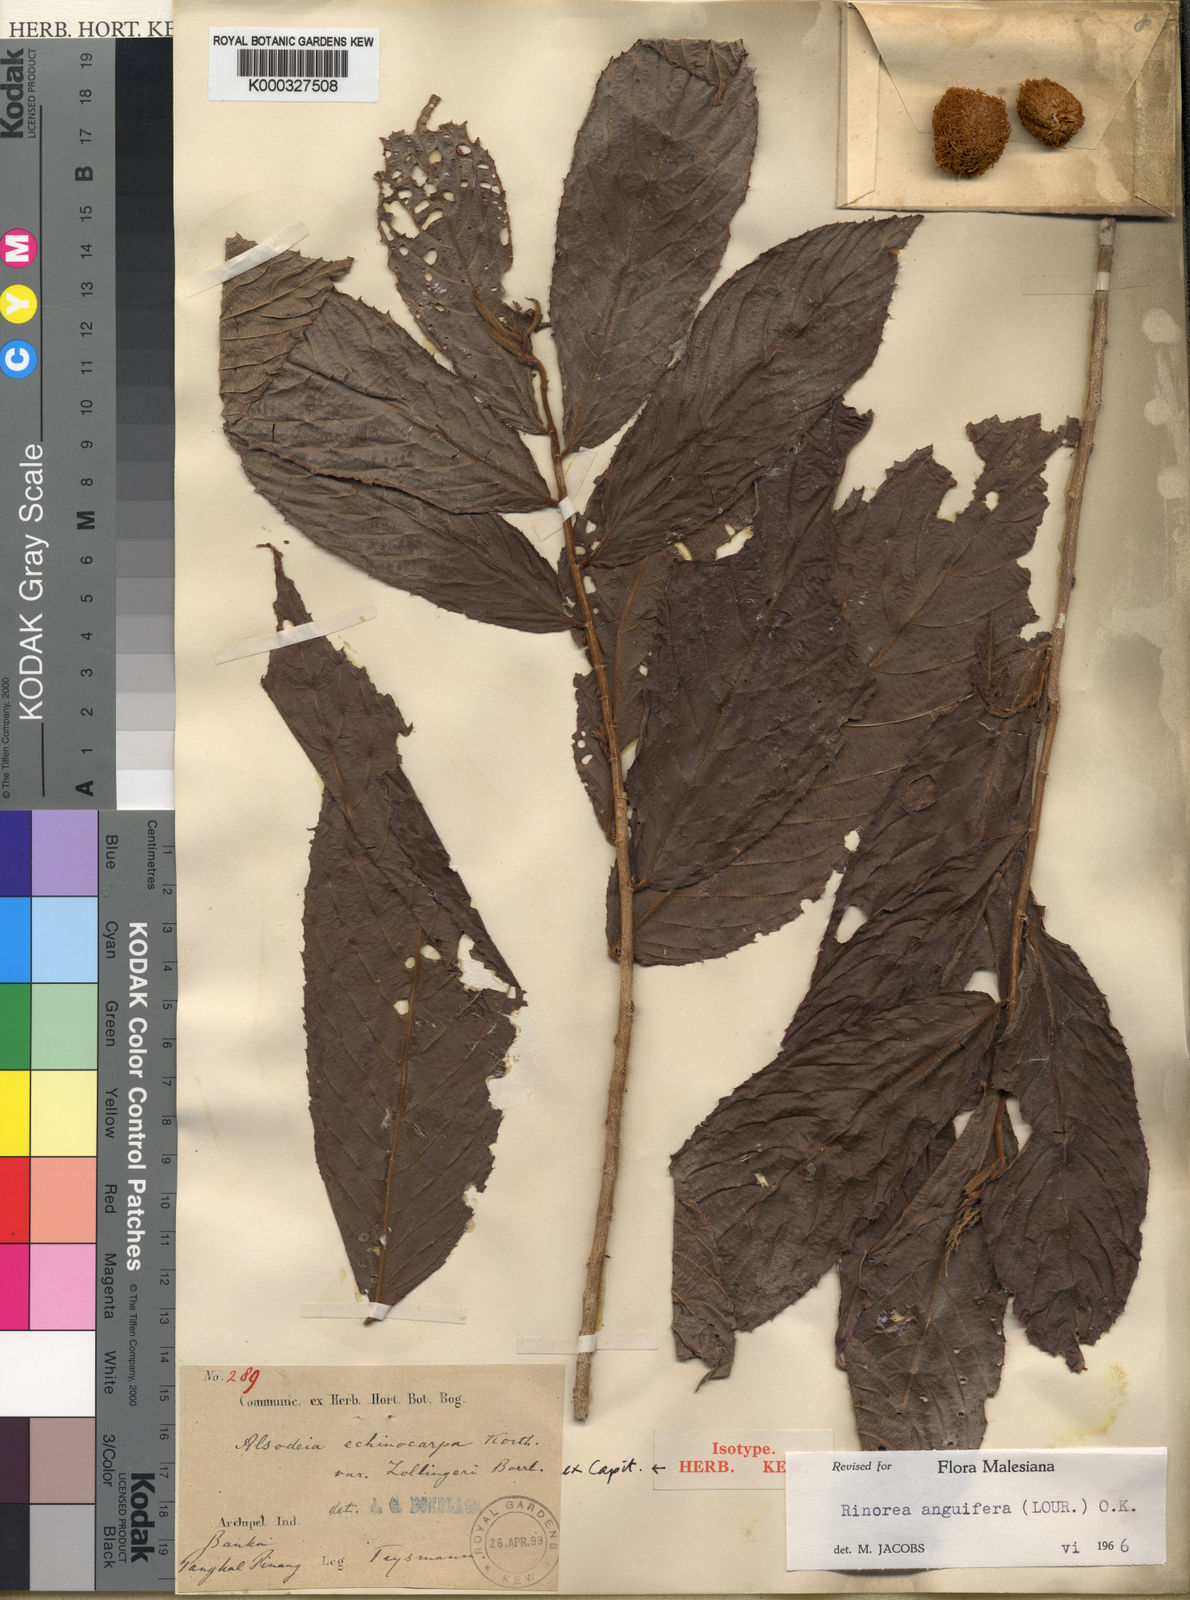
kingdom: Plantae
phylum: Tracheophyta
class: Magnoliopsida
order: Malpighiales
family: Violaceae
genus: Rinorea
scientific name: Rinorea anguifera
